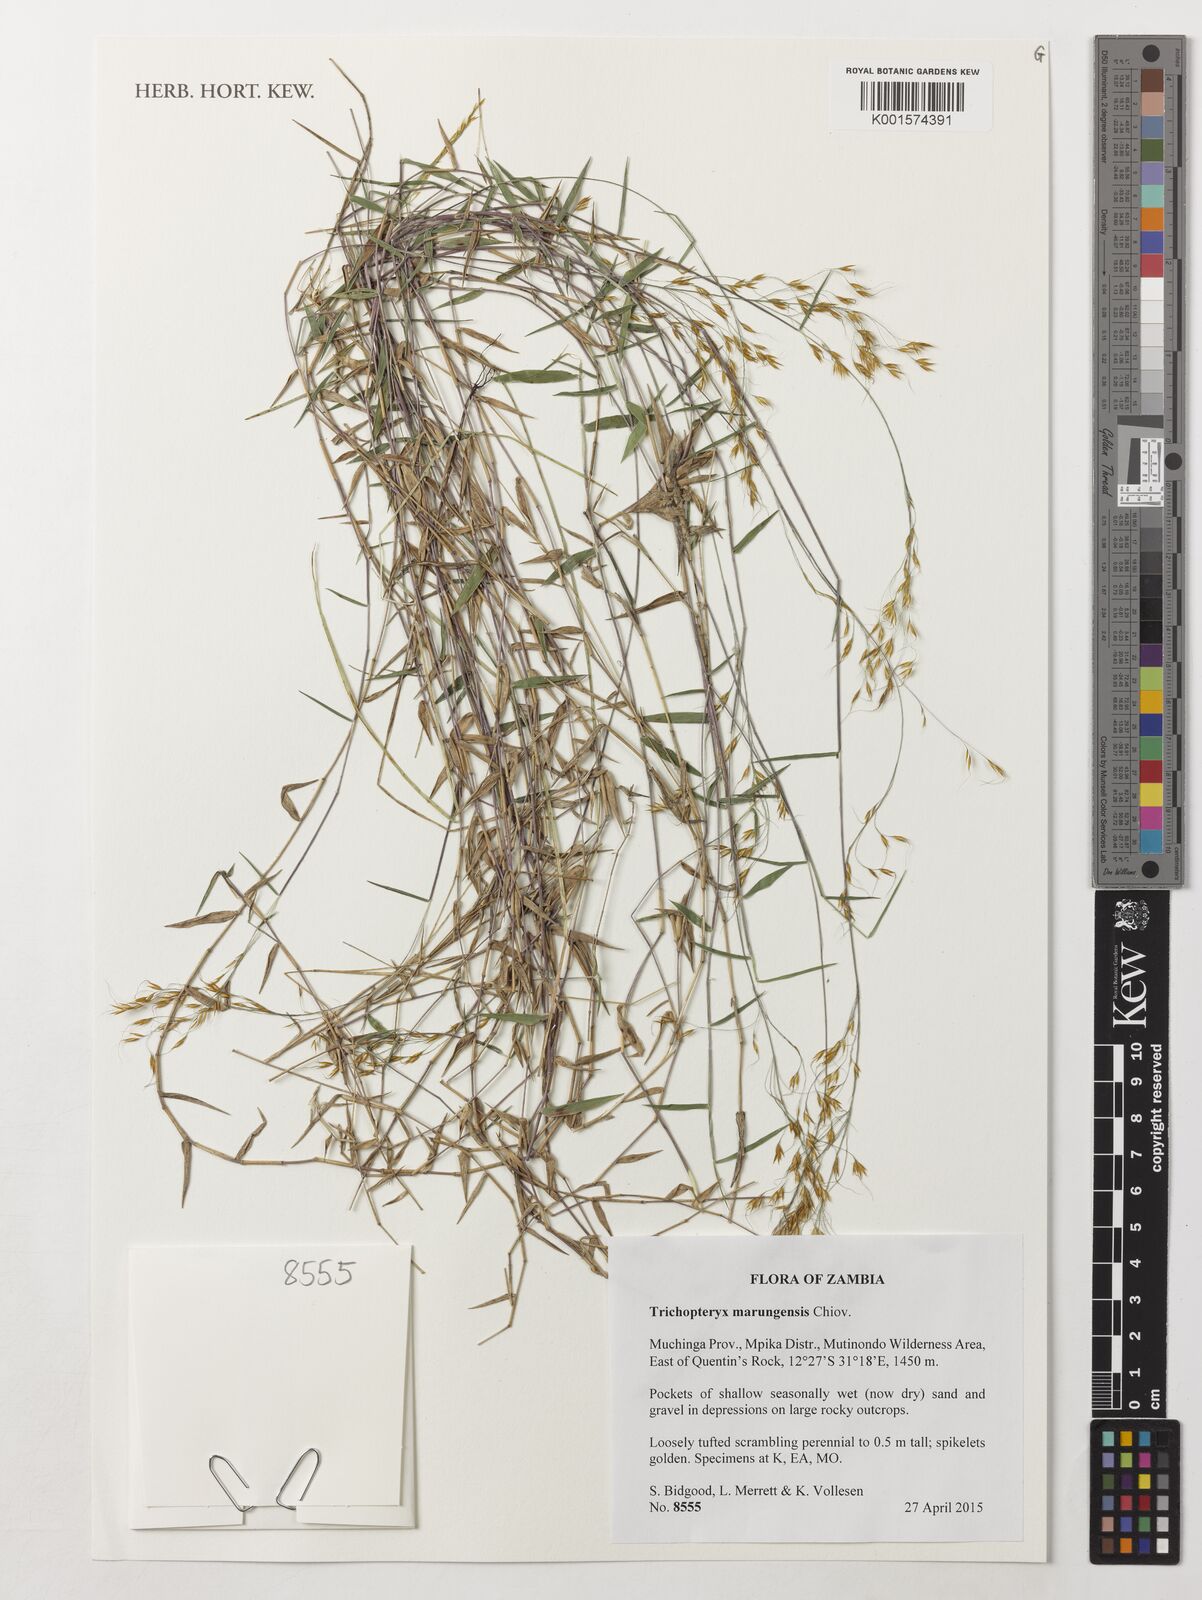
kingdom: Plantae
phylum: Tracheophyta
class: Liliopsida
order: Poales
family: Poaceae
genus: Trichopteryx
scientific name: Trichopteryx marungensis
